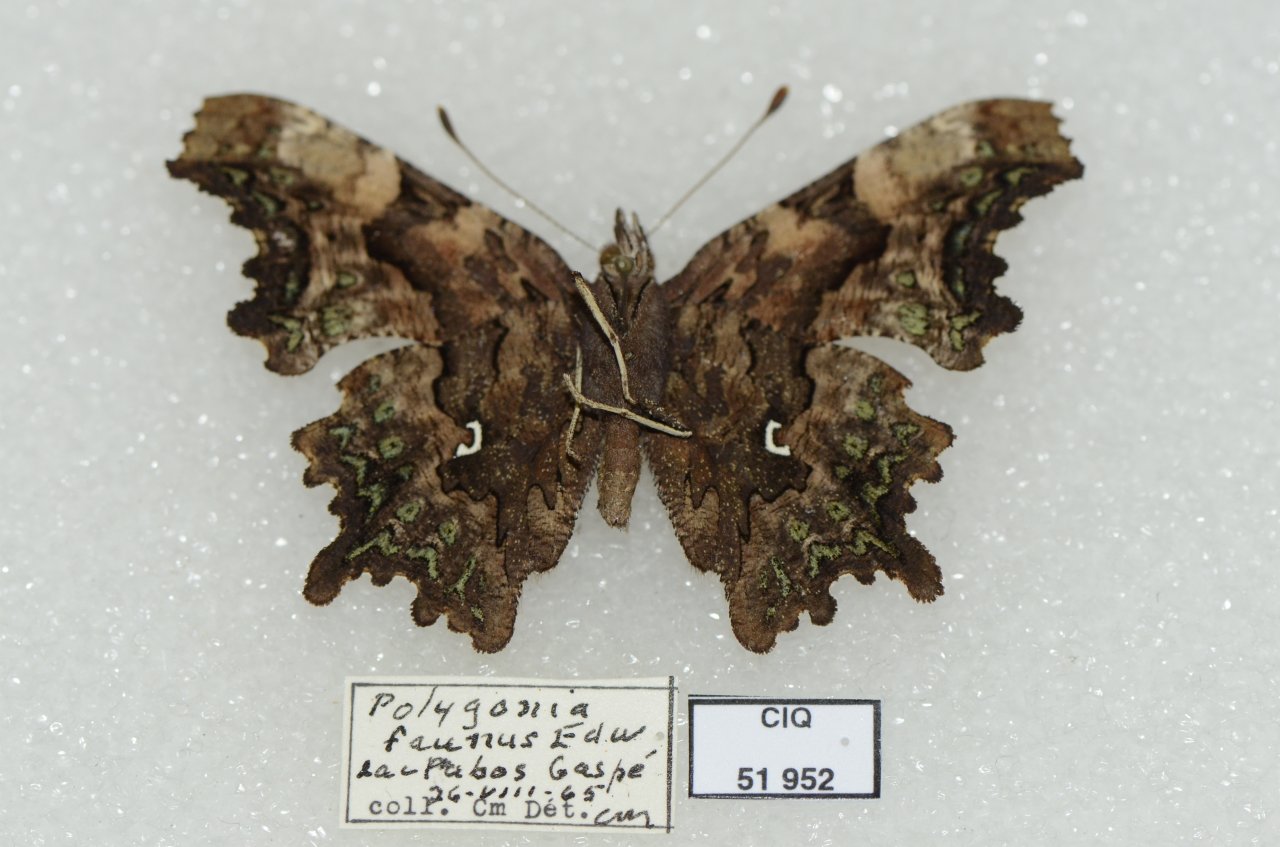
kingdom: Animalia
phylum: Arthropoda
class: Insecta
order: Lepidoptera
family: Nymphalidae
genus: Polygonia
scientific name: Polygonia faunus
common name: Green Comma
